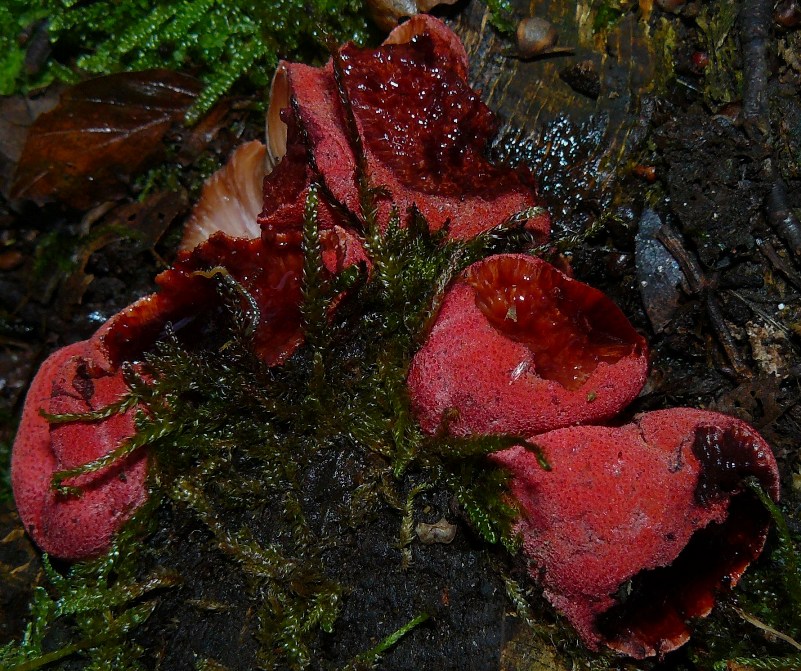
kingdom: Fungi
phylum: Basidiomycota
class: Agaricomycetes
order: Agaricales
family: Fistulinaceae
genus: Fistulina
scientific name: Fistulina hepatica
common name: oksetunge
